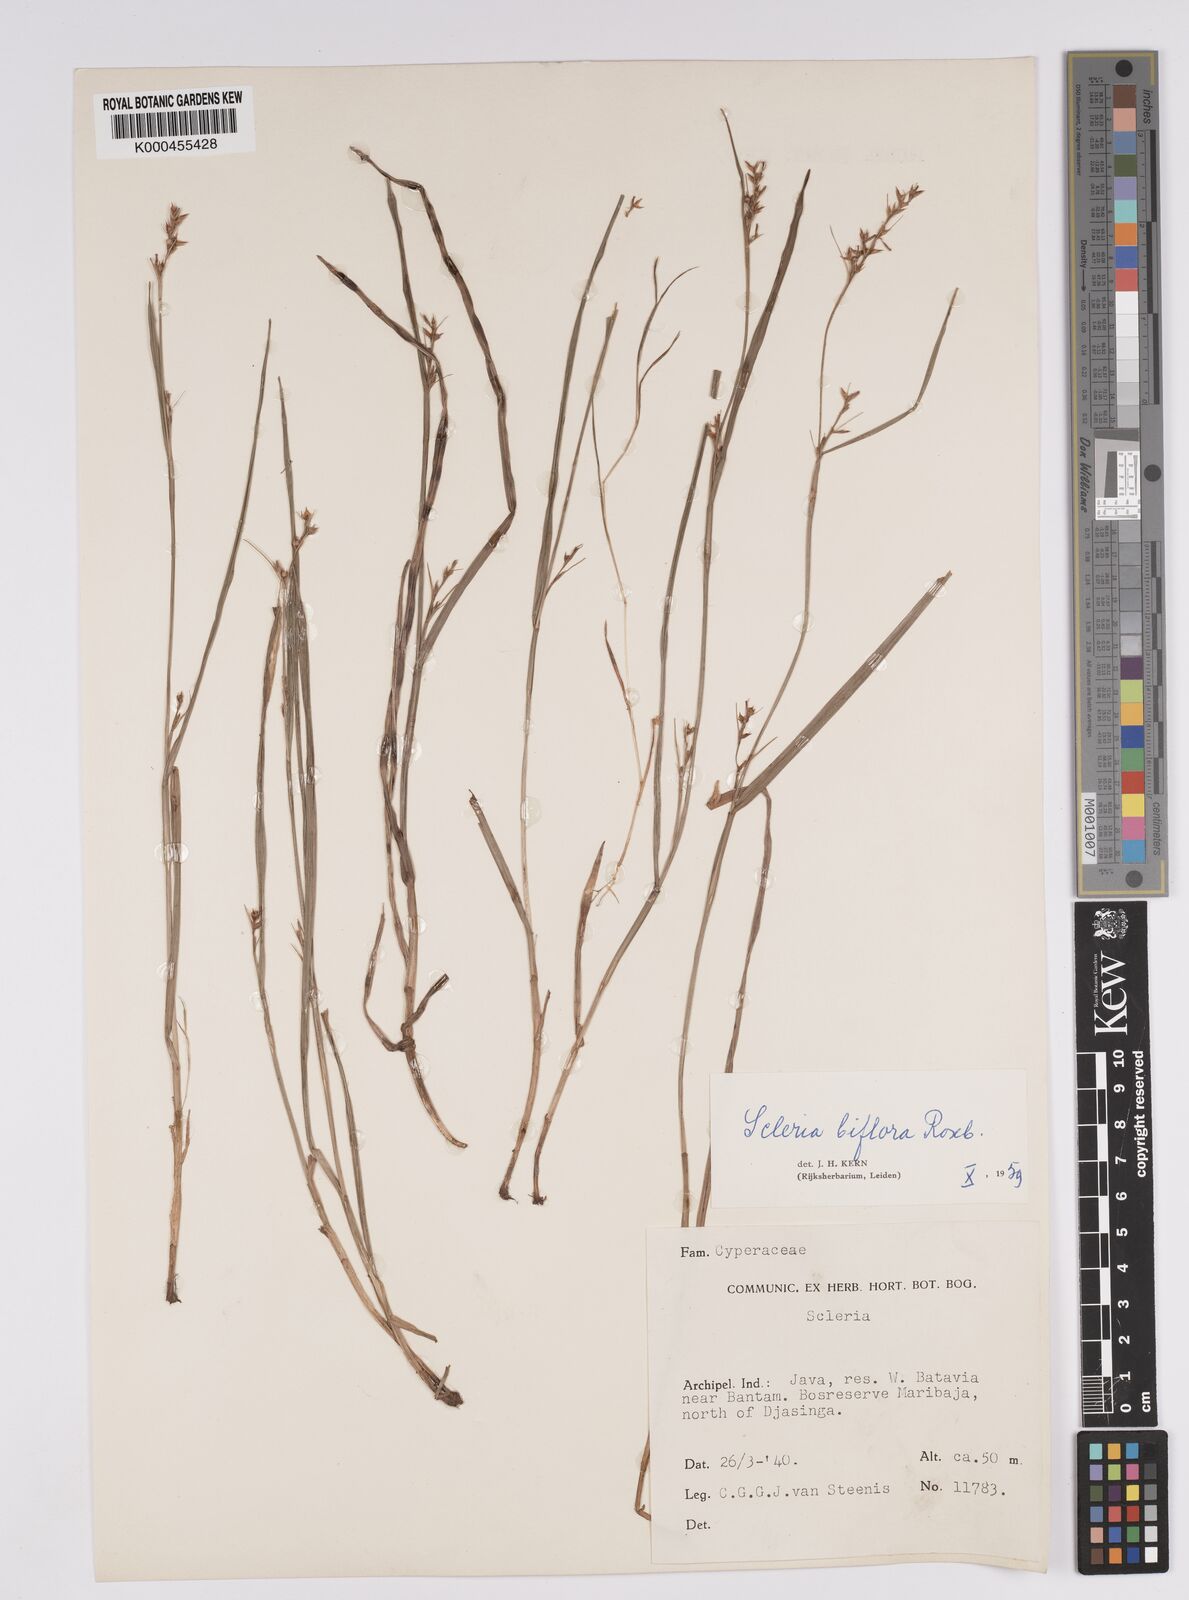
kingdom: Plantae
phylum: Tracheophyta
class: Liliopsida
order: Poales
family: Cyperaceae
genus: Scleria
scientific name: Scleria biflora
